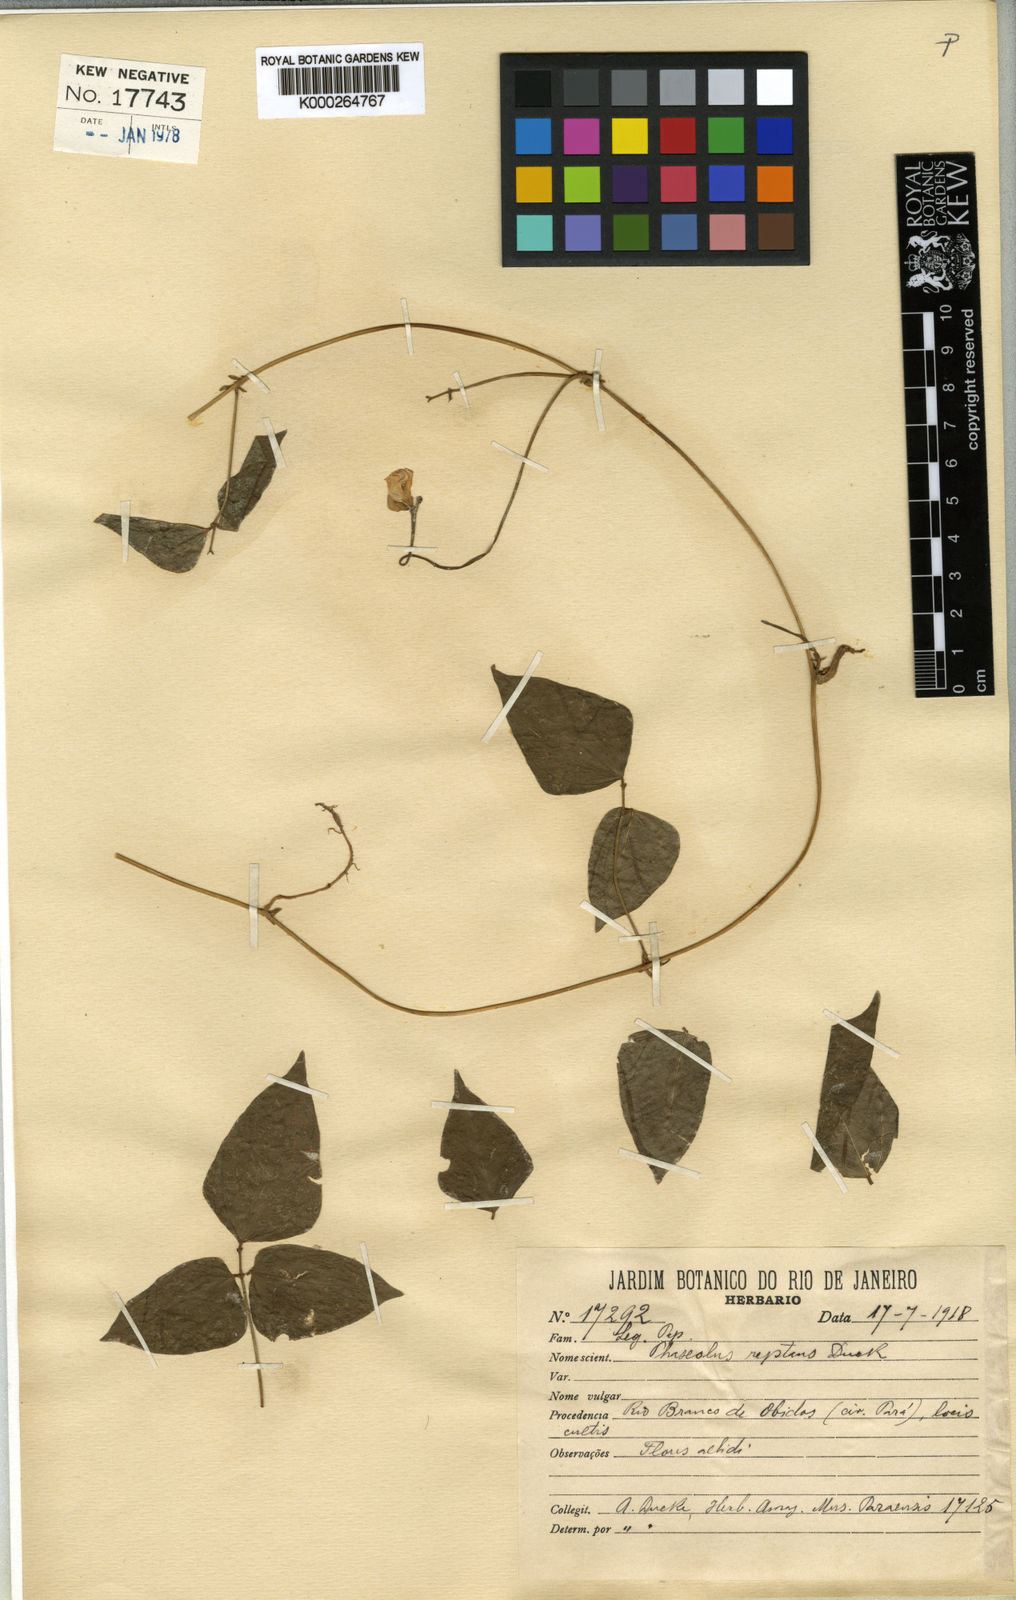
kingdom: Plantae
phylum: Tracheophyta
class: Magnoliopsida
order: Fabales
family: Fabaceae
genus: Ancistrotropis
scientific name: Ancistrotropis peduncularis
